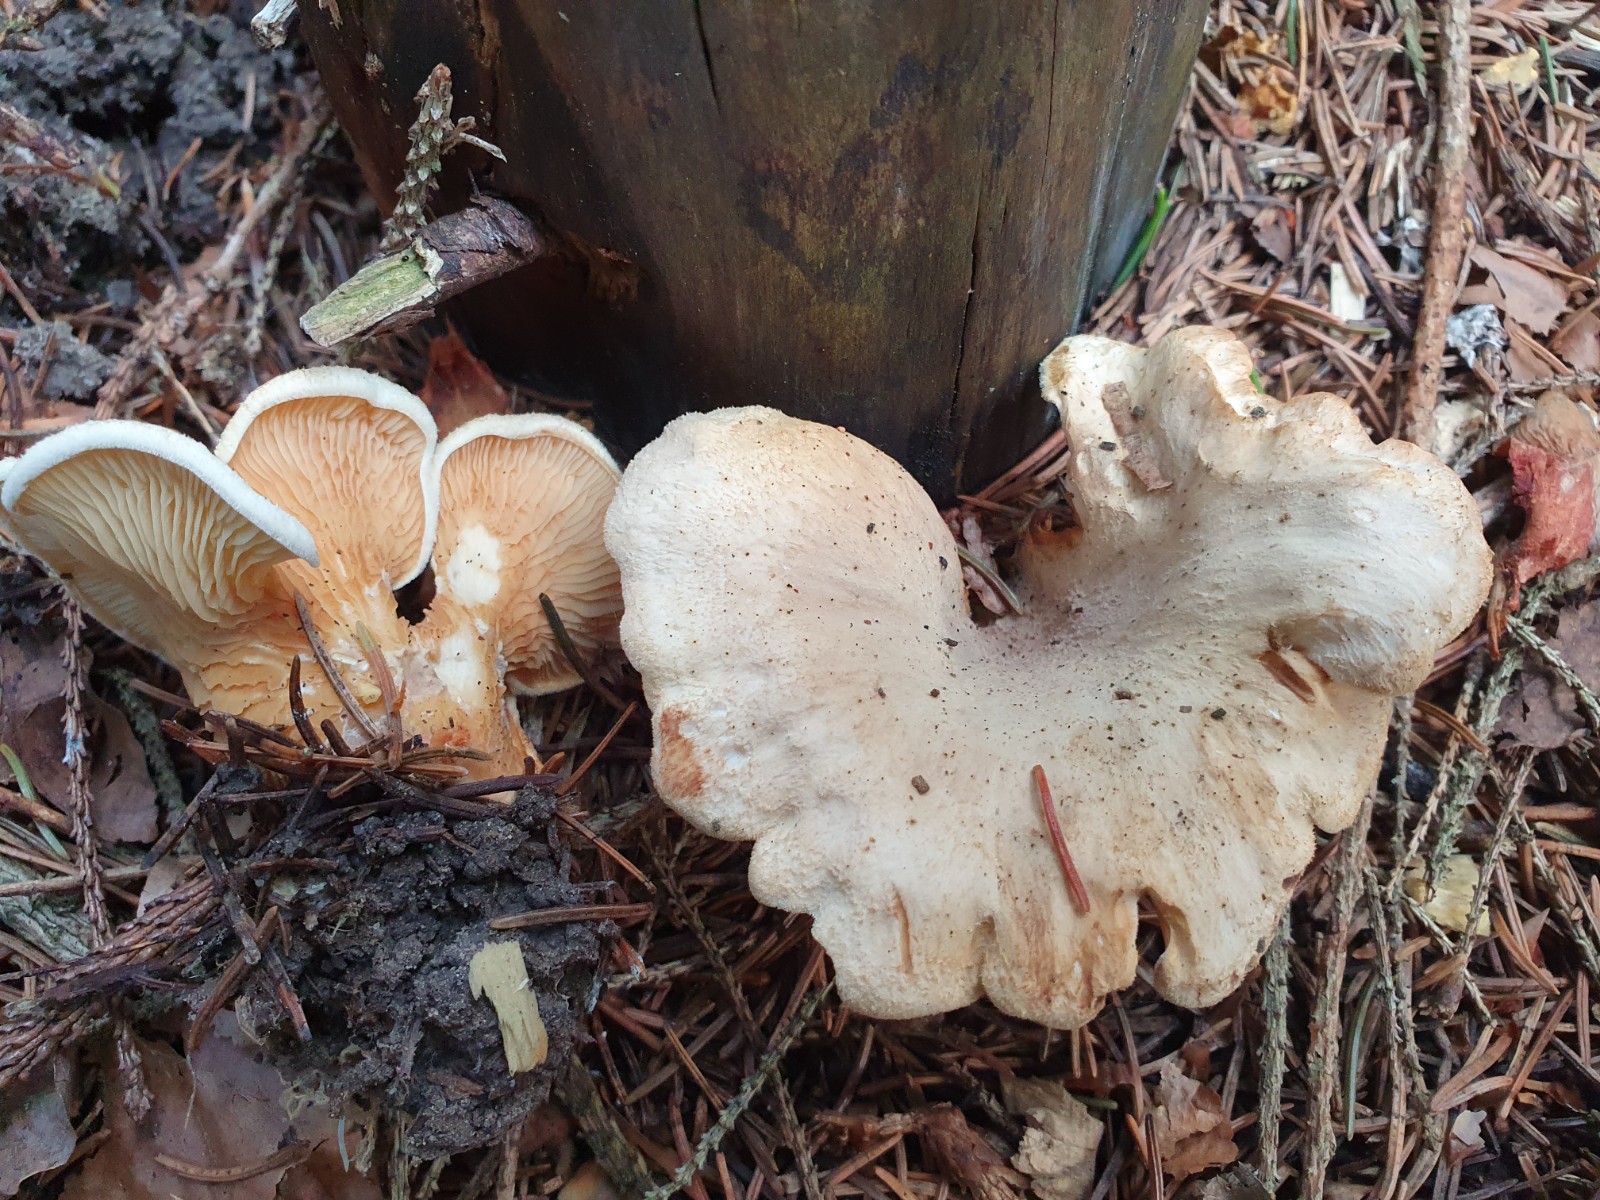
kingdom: Fungi
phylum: Basidiomycota
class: Agaricomycetes
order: Boletales
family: Tapinellaceae
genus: Tapinella
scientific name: Tapinella panuoides
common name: tømmer-viftesvamp
